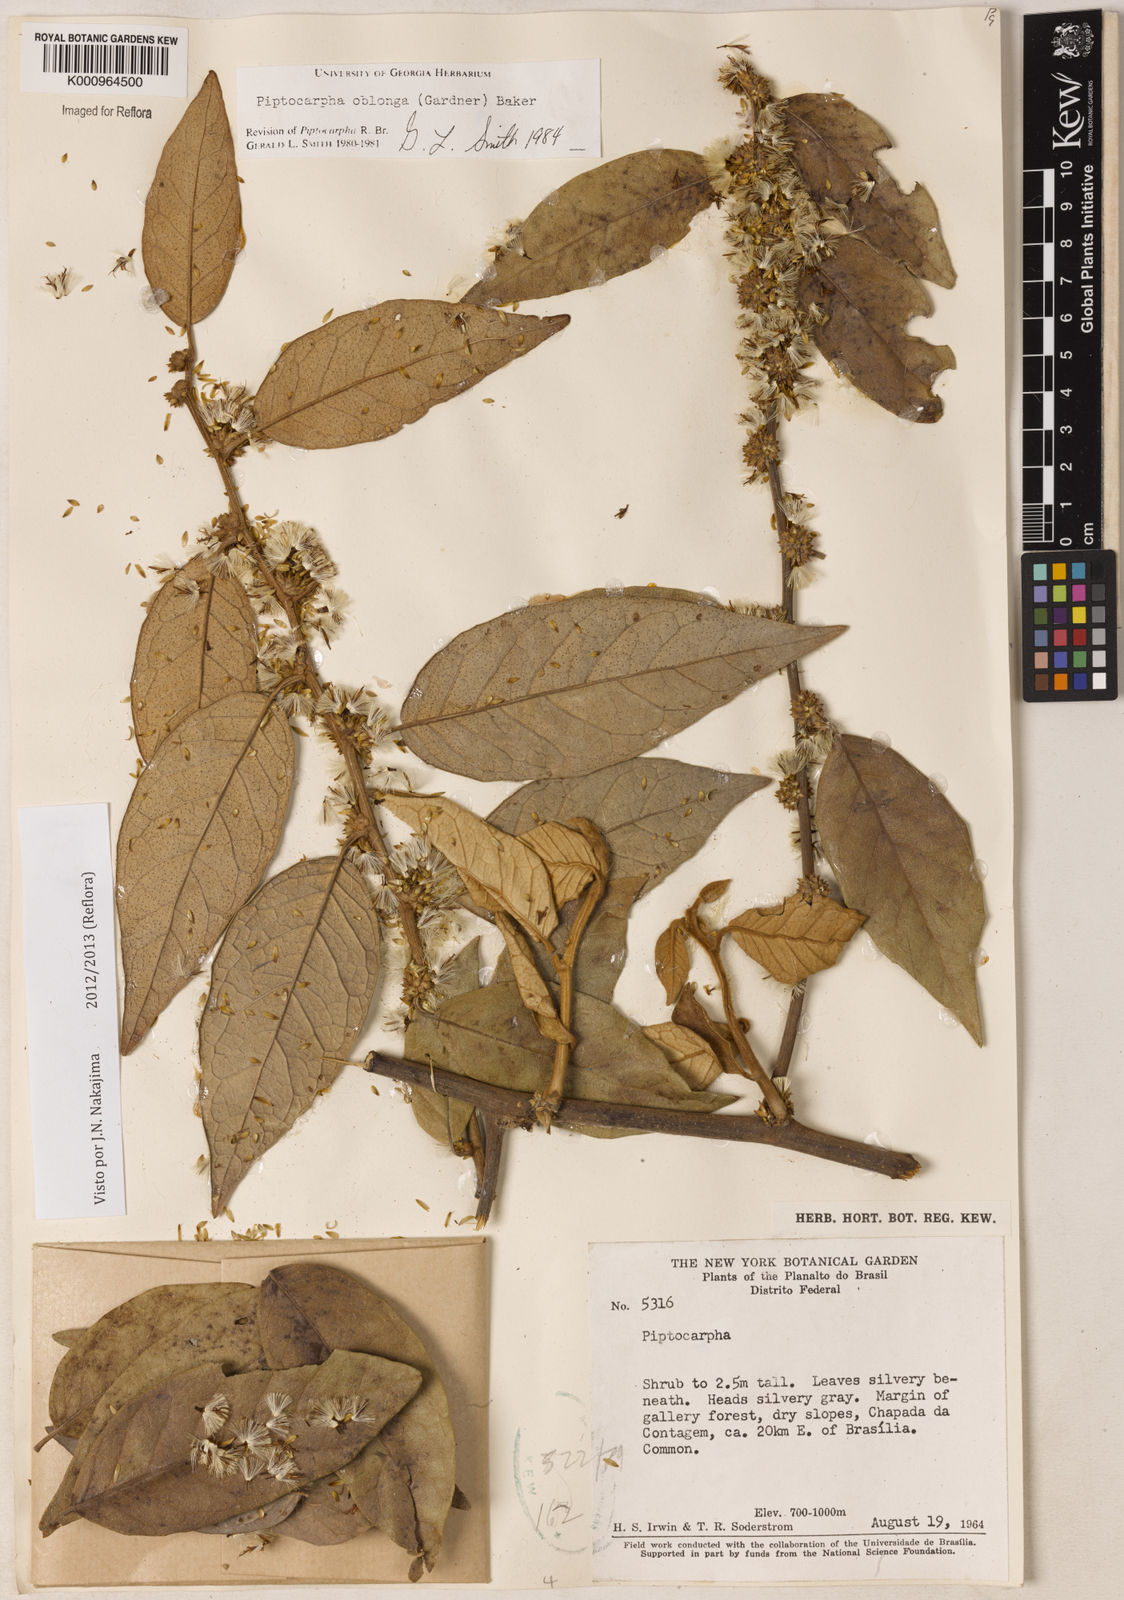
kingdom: Plantae
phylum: Tracheophyta
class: Magnoliopsida
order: Asterales
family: Asteraceae
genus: Piptocarpha
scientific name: Piptocarpha oblonga
